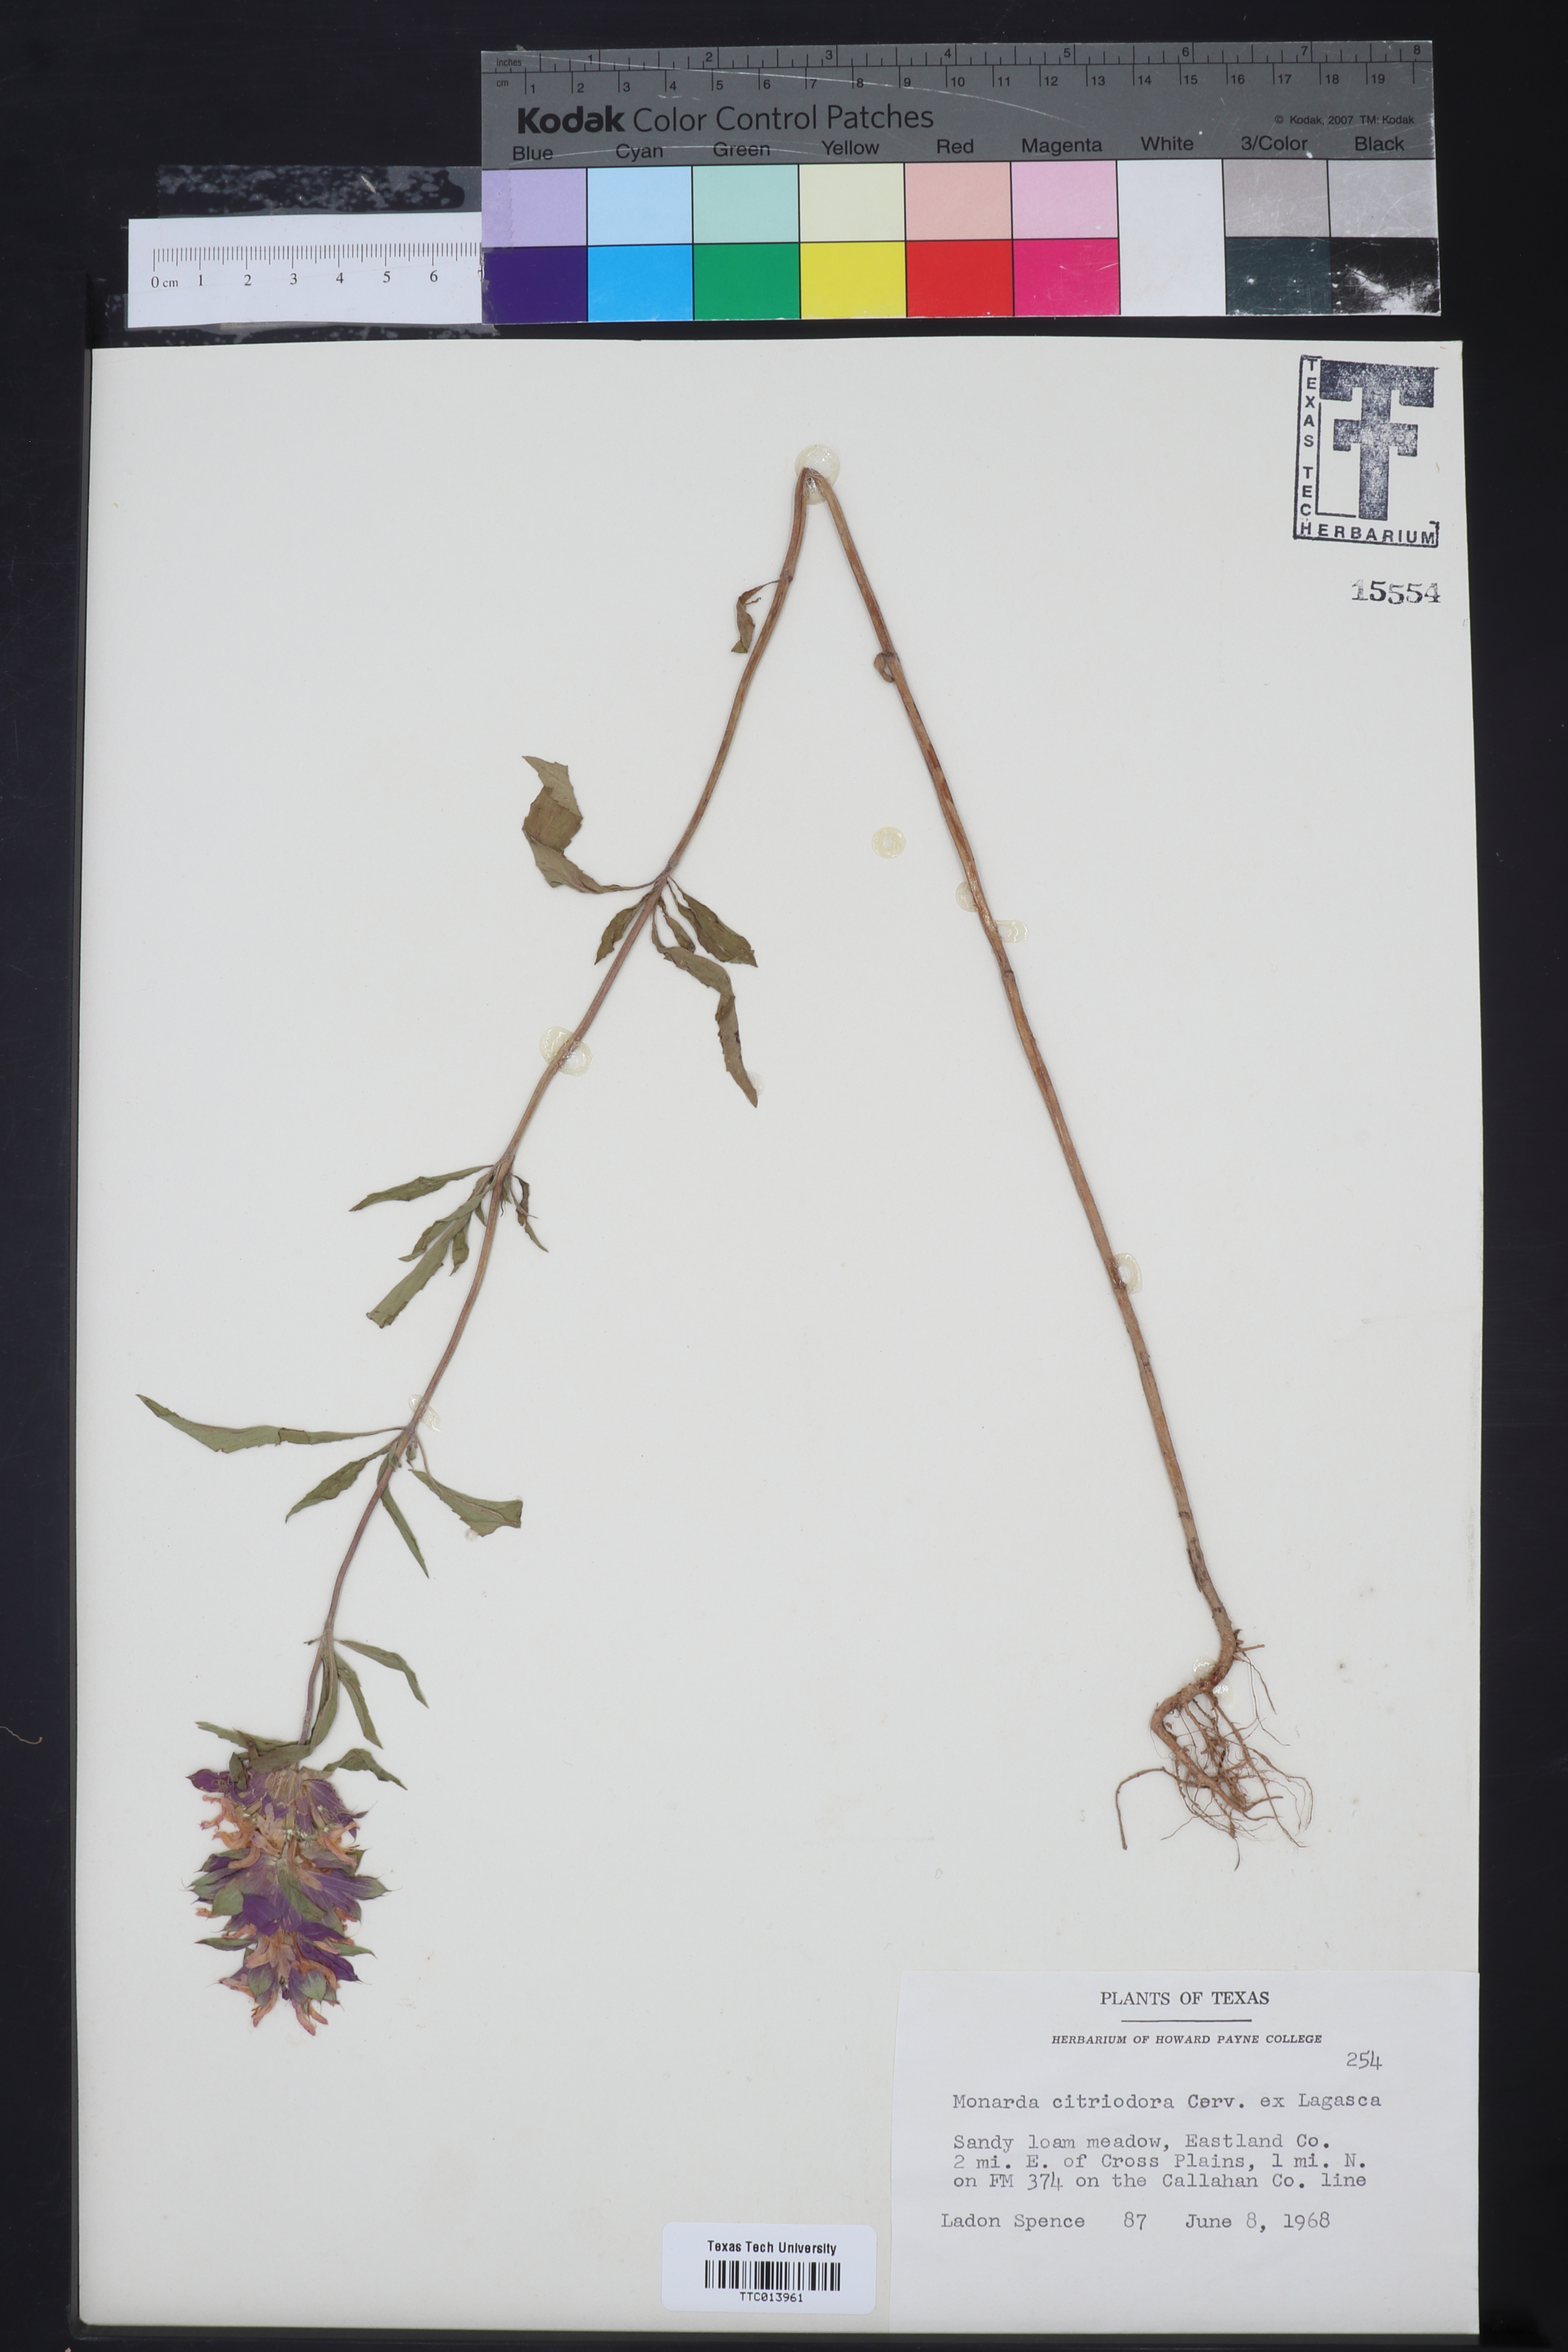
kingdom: Plantae
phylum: Tracheophyta
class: Magnoliopsida
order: Lamiales
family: Lamiaceae
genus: Monarda
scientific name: Monarda citriodora
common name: Lemon beebalm
